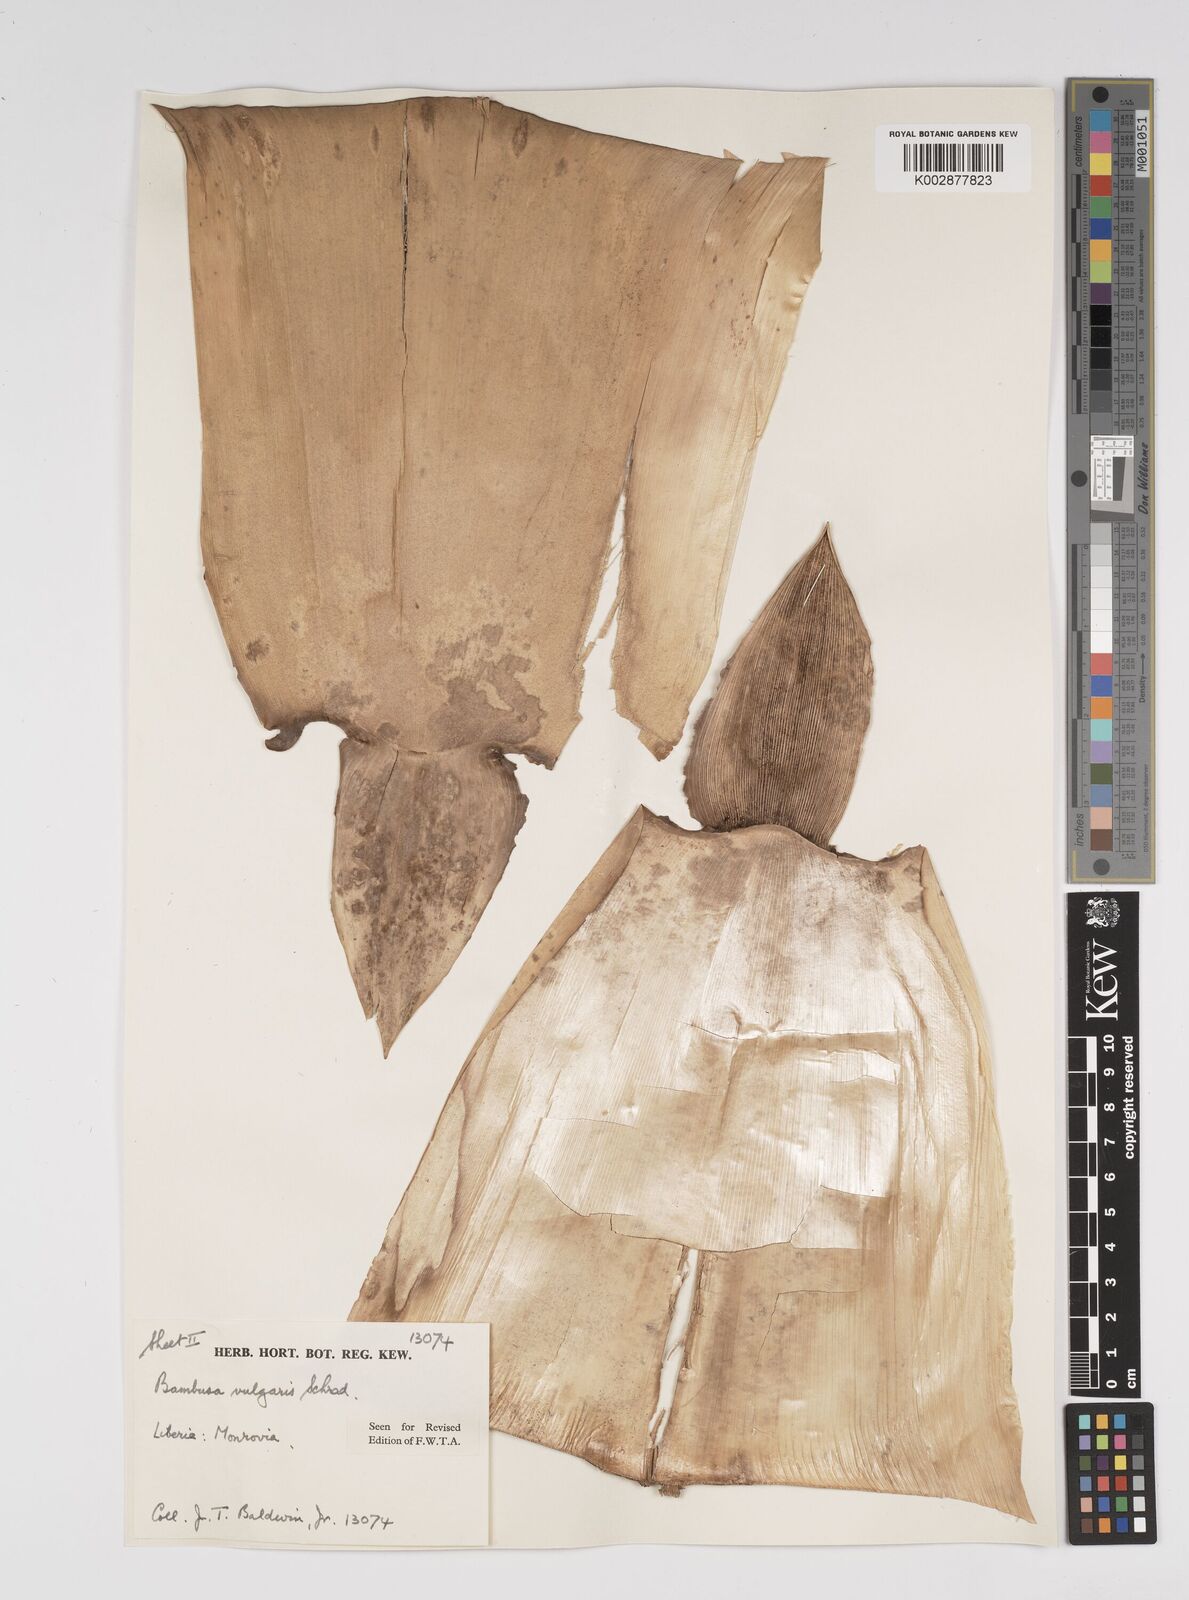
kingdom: Plantae
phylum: Tracheophyta
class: Liliopsida
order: Poales
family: Poaceae
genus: Bambusa
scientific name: Bambusa vulgaris
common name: Common bamboo
